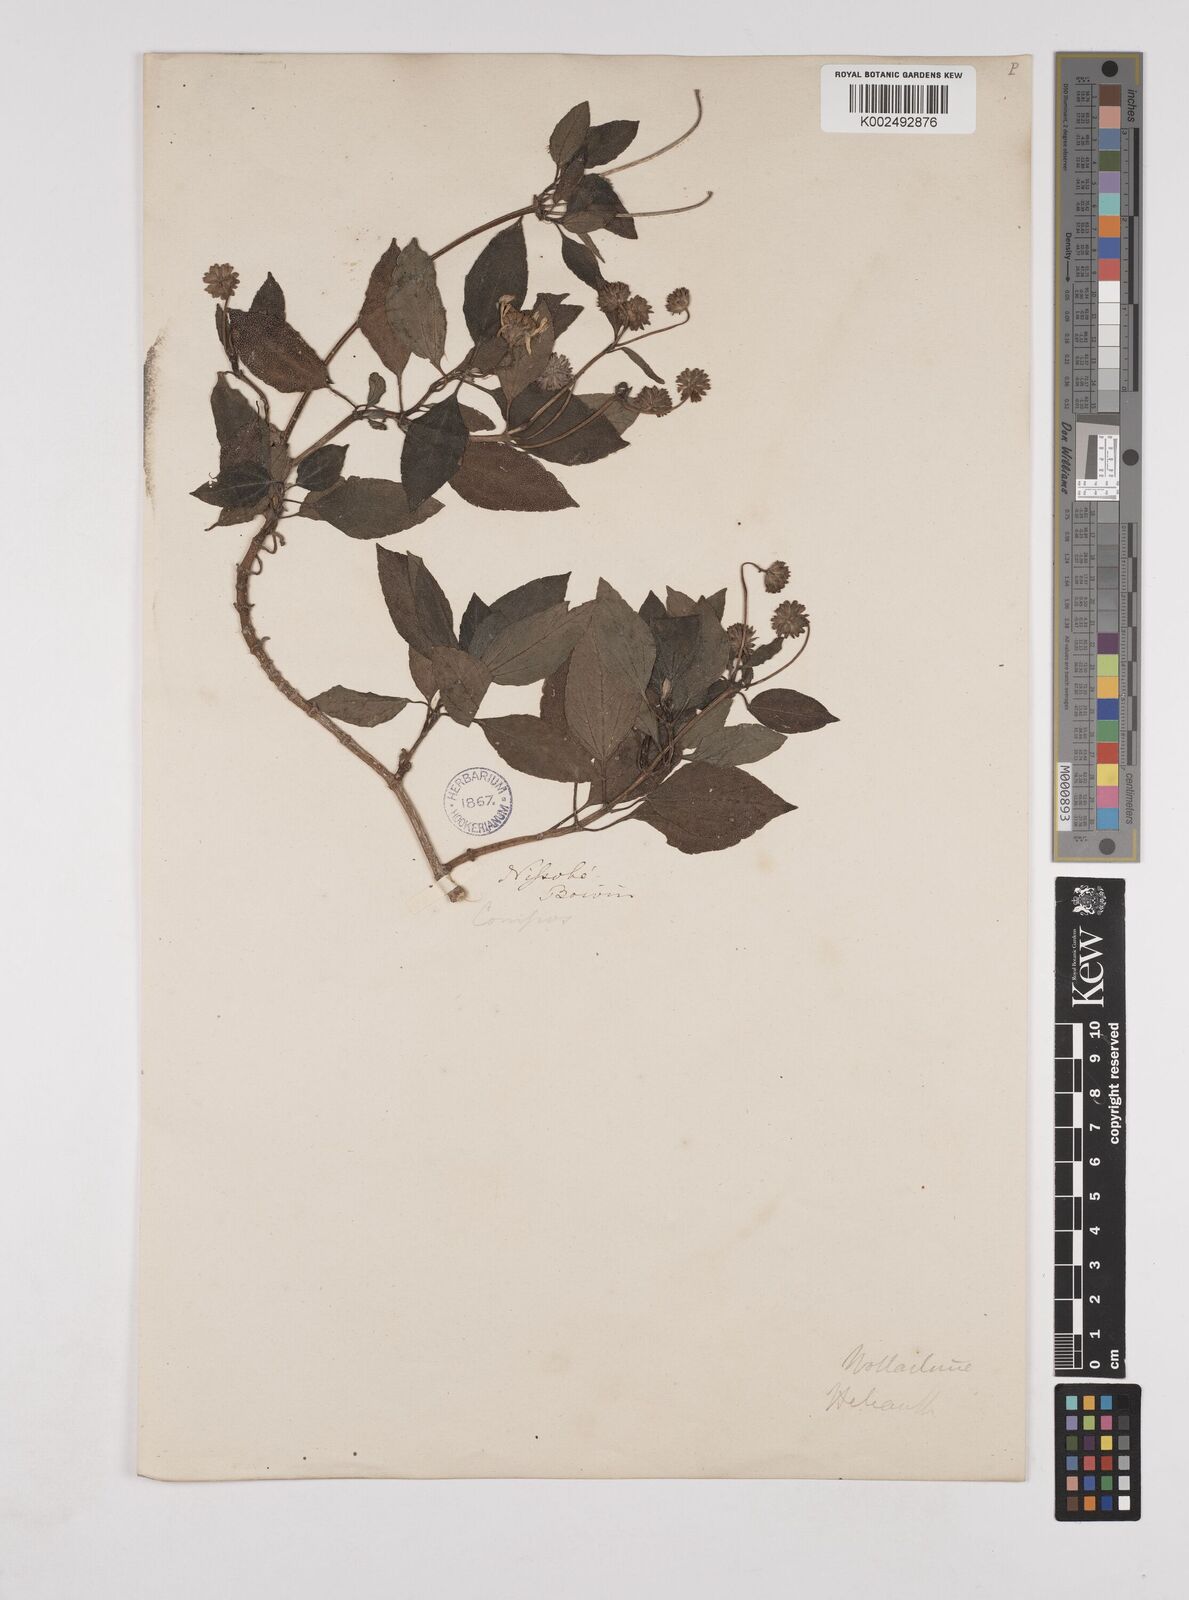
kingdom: Plantae
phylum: Tracheophyta
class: Magnoliopsida
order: Asterales
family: Asteraceae
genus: Wollastonia
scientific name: Wollastonia biflora
